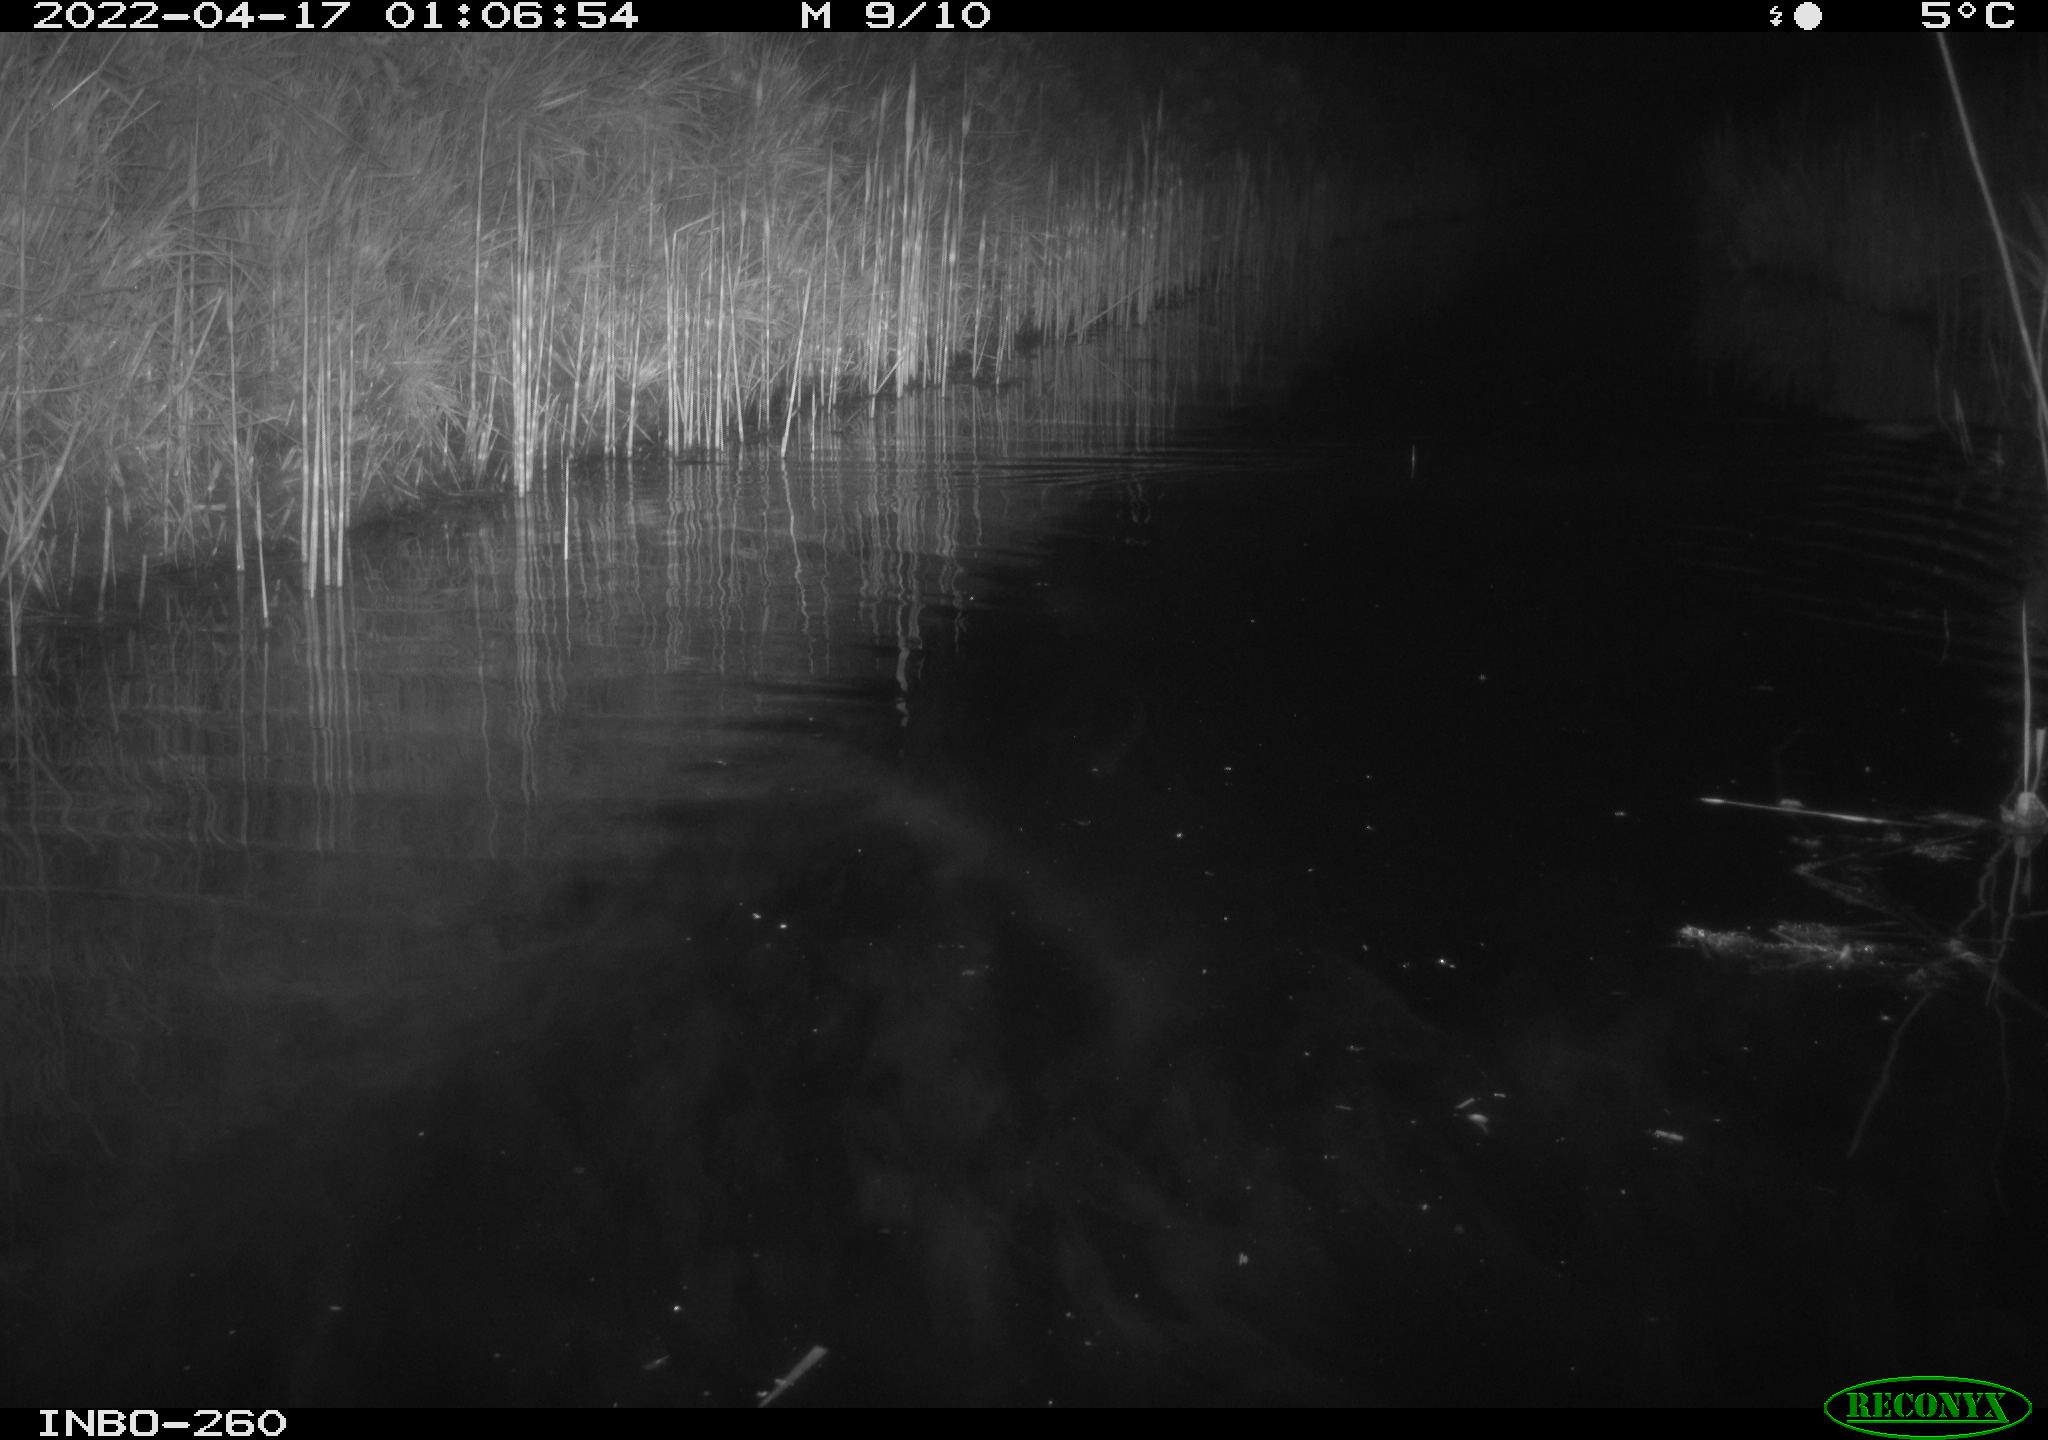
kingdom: Animalia
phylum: Chordata
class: Mammalia
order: Rodentia
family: Cricetidae
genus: Ondatra
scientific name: Ondatra zibethicus
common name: Muskrat
